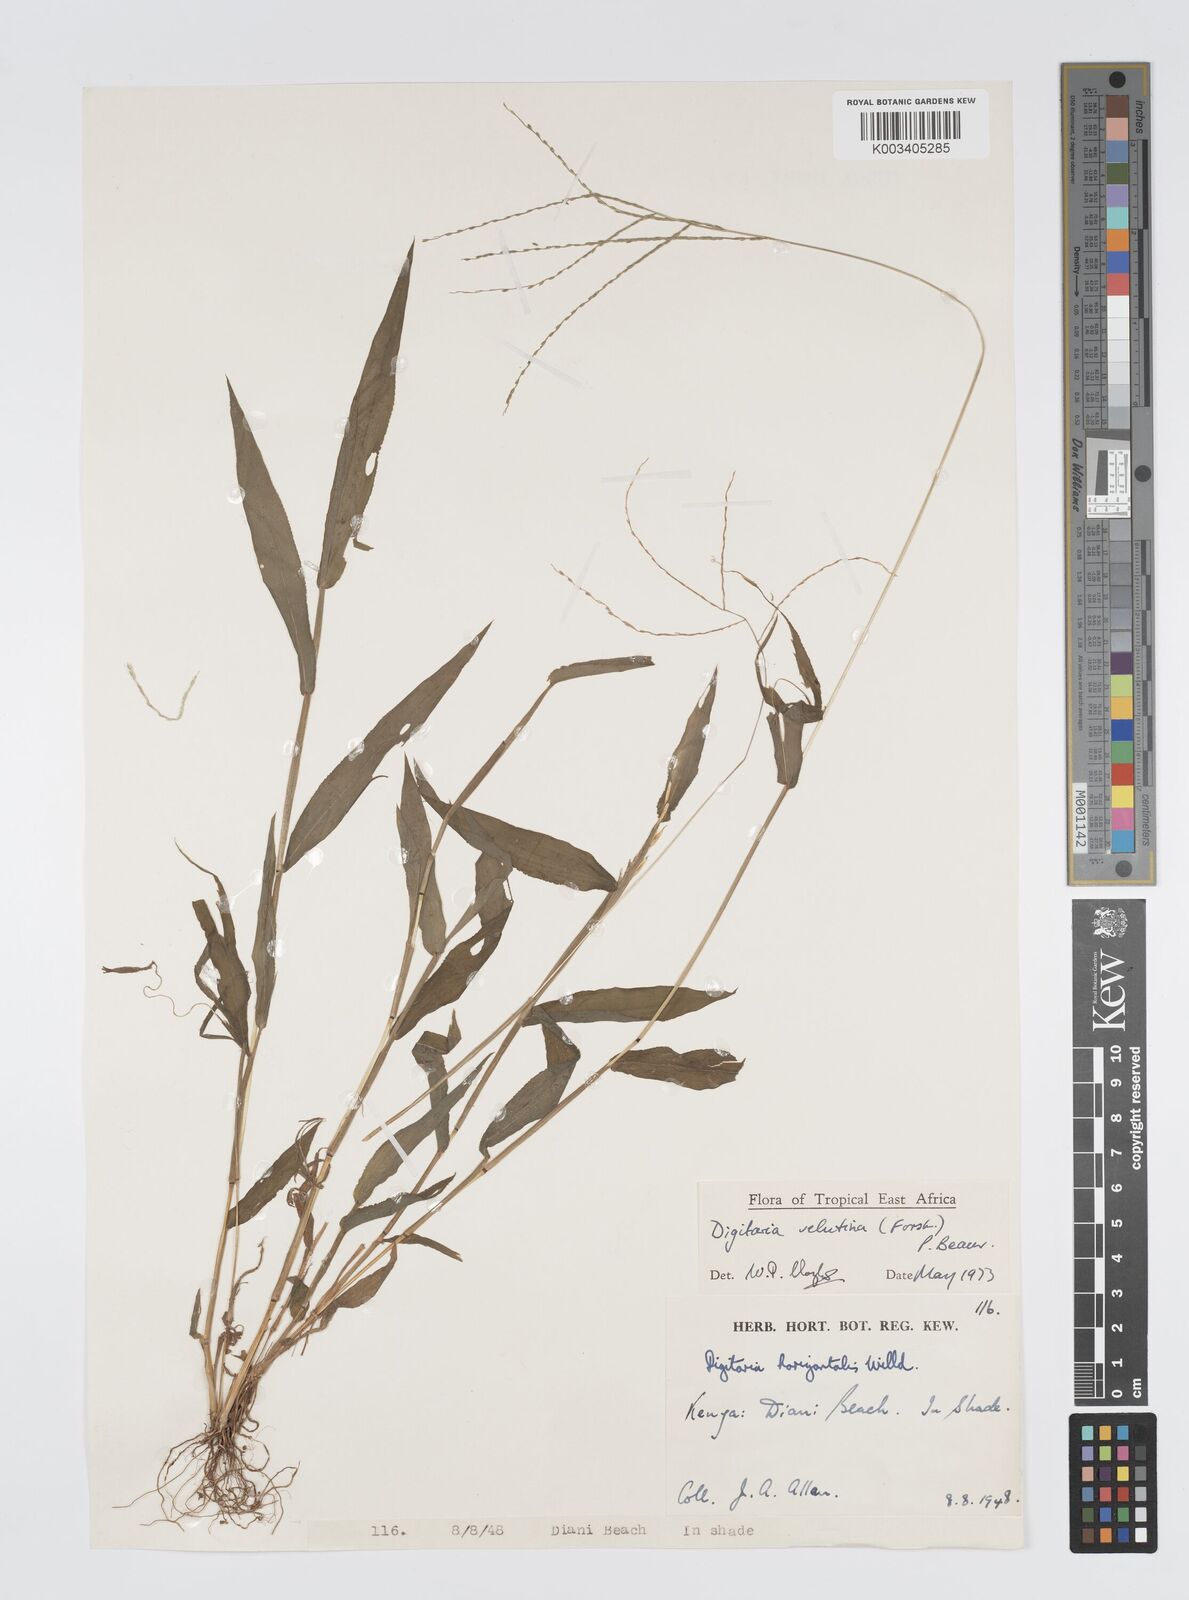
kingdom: Plantae
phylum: Tracheophyta
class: Liliopsida
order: Poales
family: Poaceae
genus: Digitaria
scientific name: Digitaria velutina
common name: Long-plume finger grass
